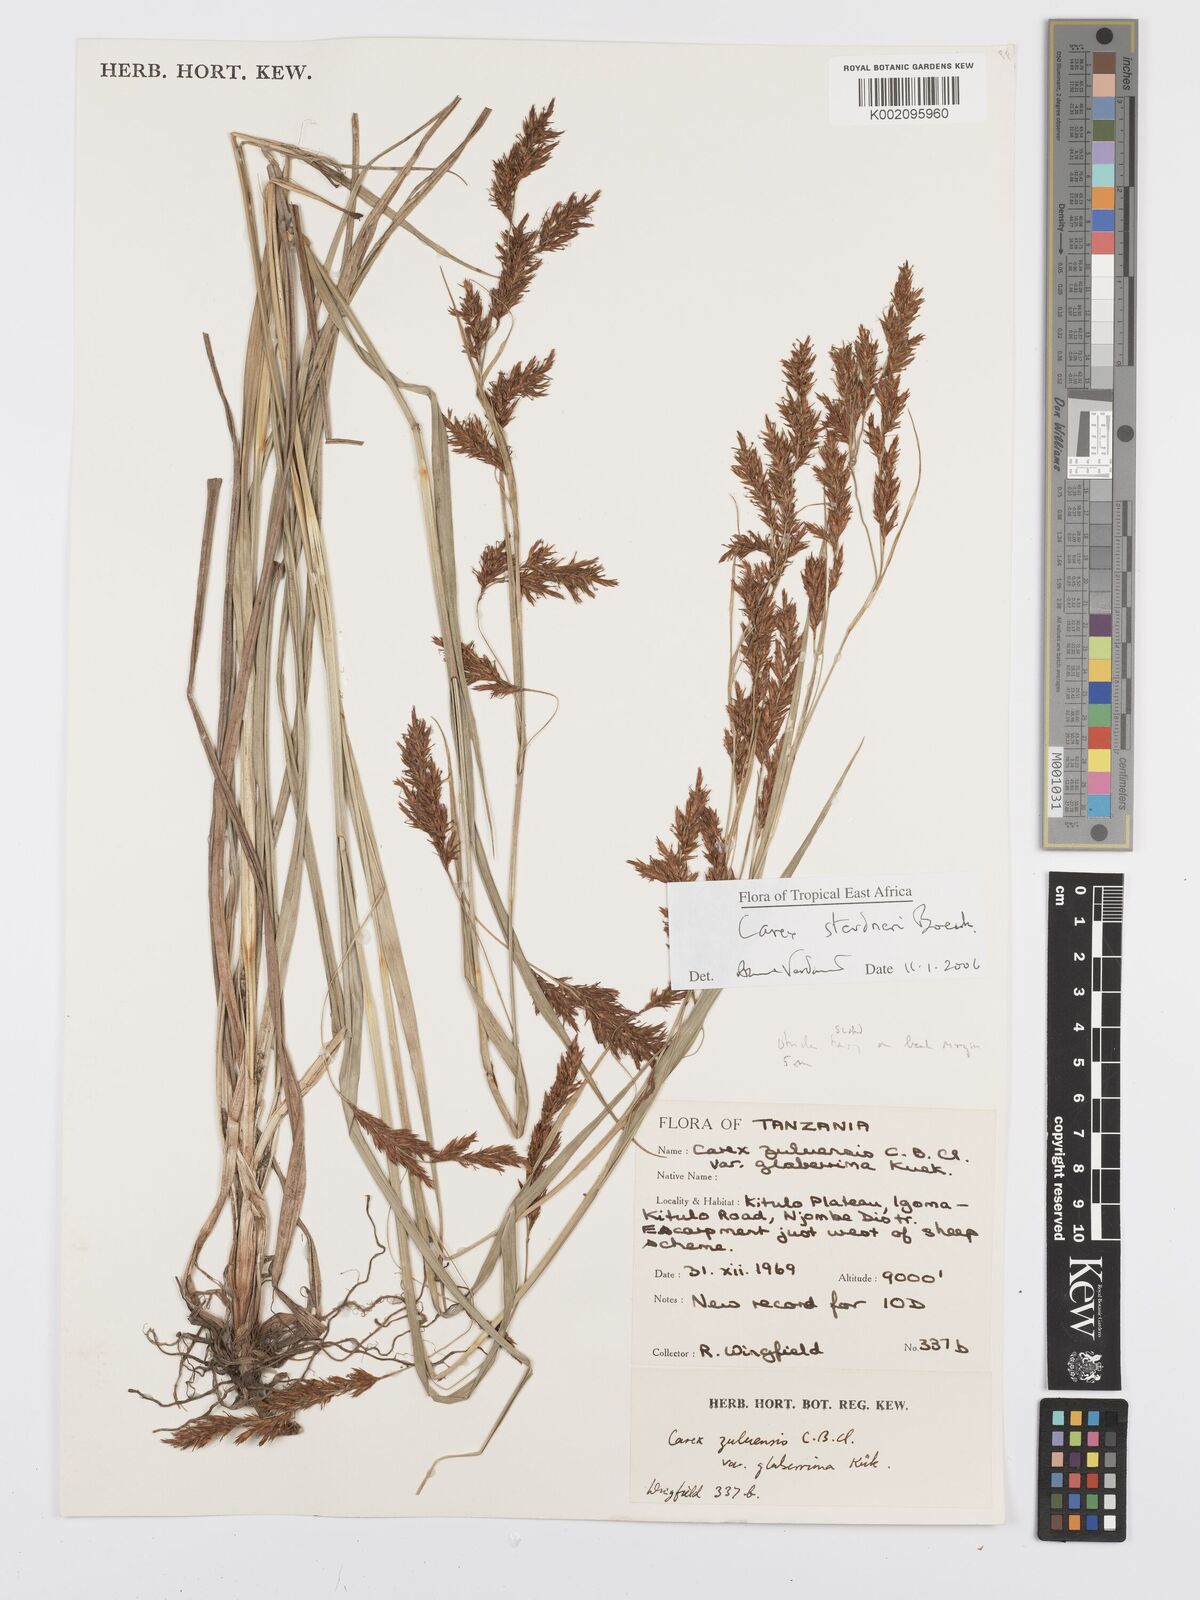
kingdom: Plantae
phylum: Tracheophyta
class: Liliopsida
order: Poales
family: Cyperaceae
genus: Carex
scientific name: Carex steudneri
